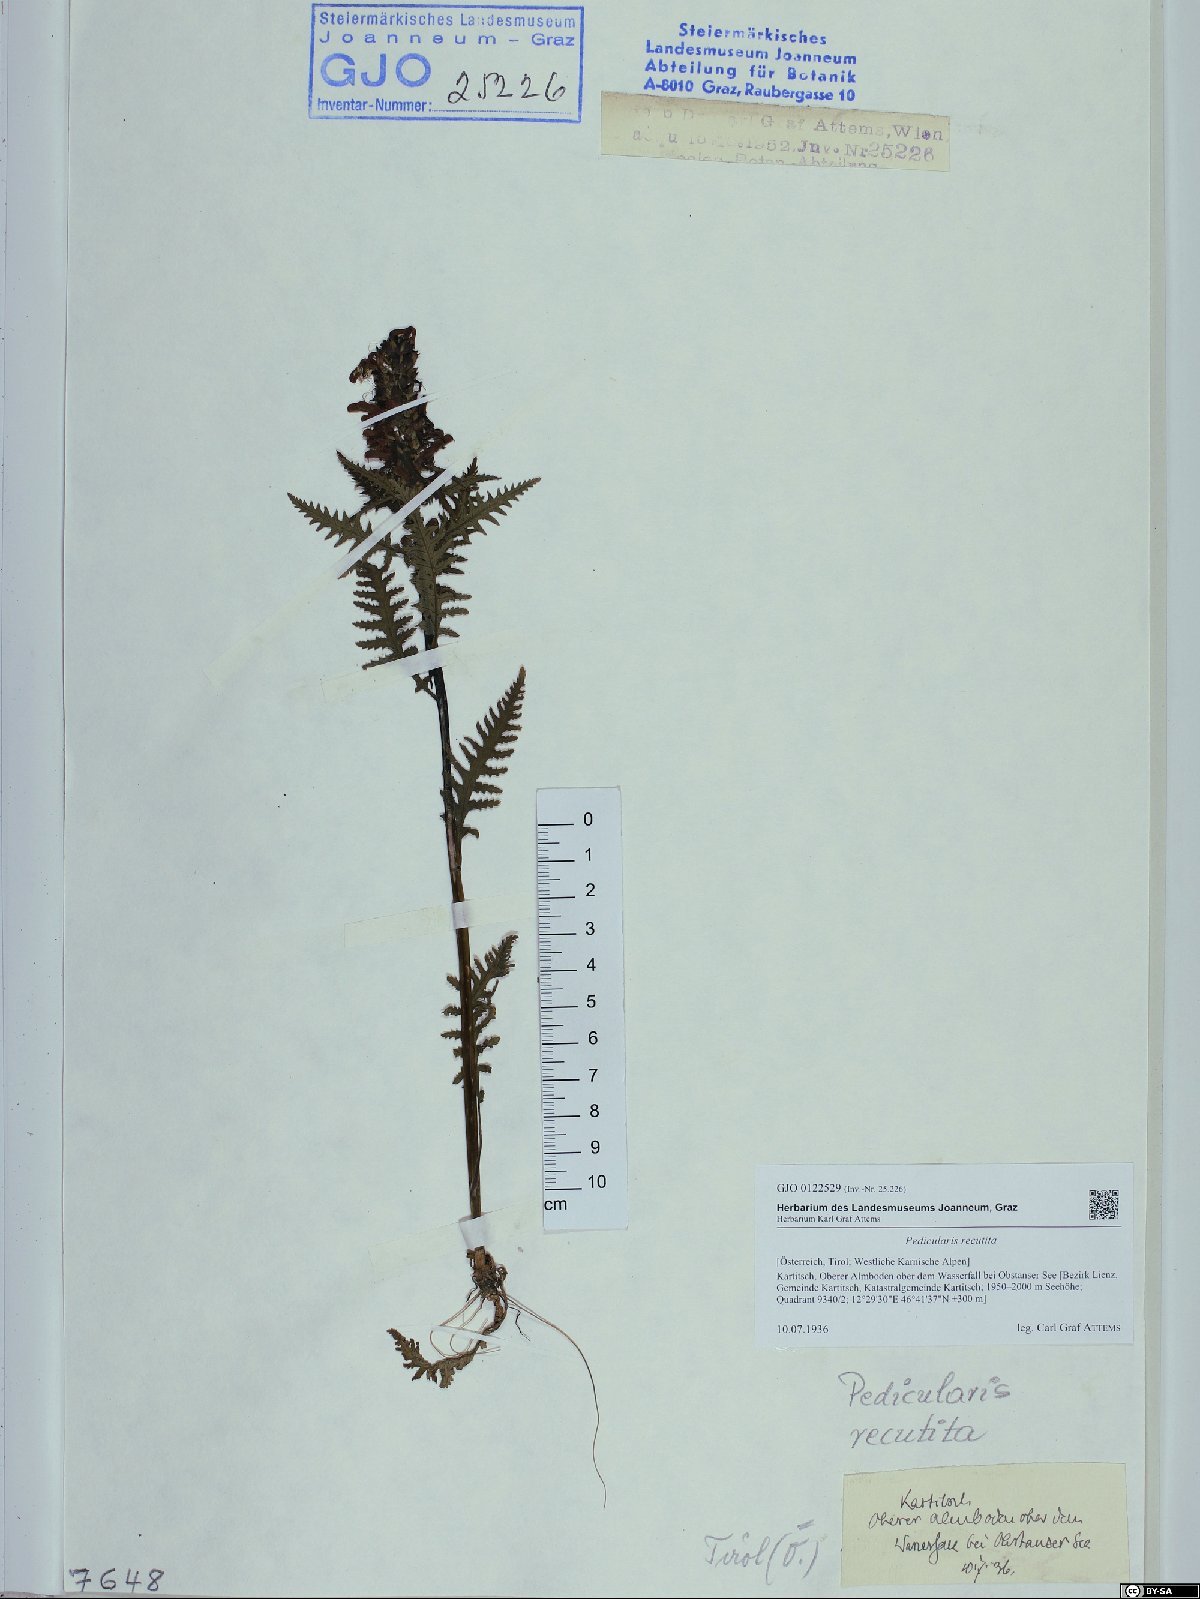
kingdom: Plantae
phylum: Tracheophyta
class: Magnoliopsida
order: Lamiales
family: Orobanchaceae
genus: Pedicularis
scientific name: Pedicularis recutita
